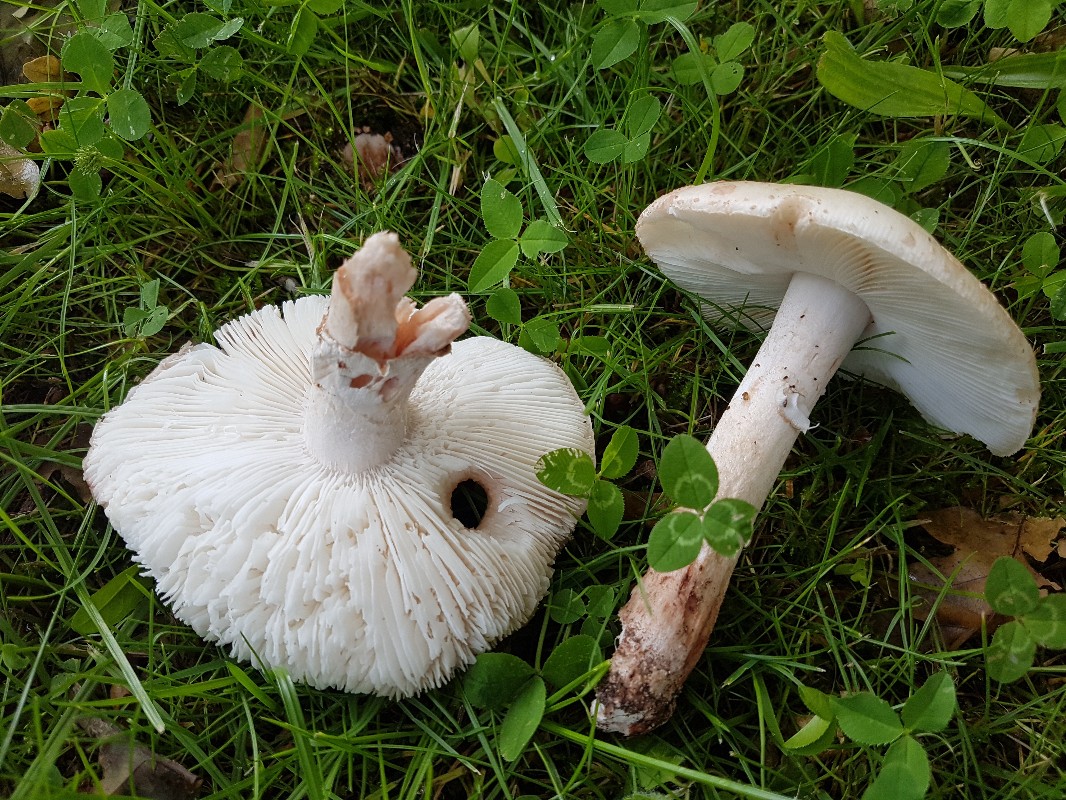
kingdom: Fungi
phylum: Basidiomycota
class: Agaricomycetes
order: Agaricales
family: Amanitaceae
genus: Amanita
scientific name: Amanita rubescens
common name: rødmende fluesvamp
